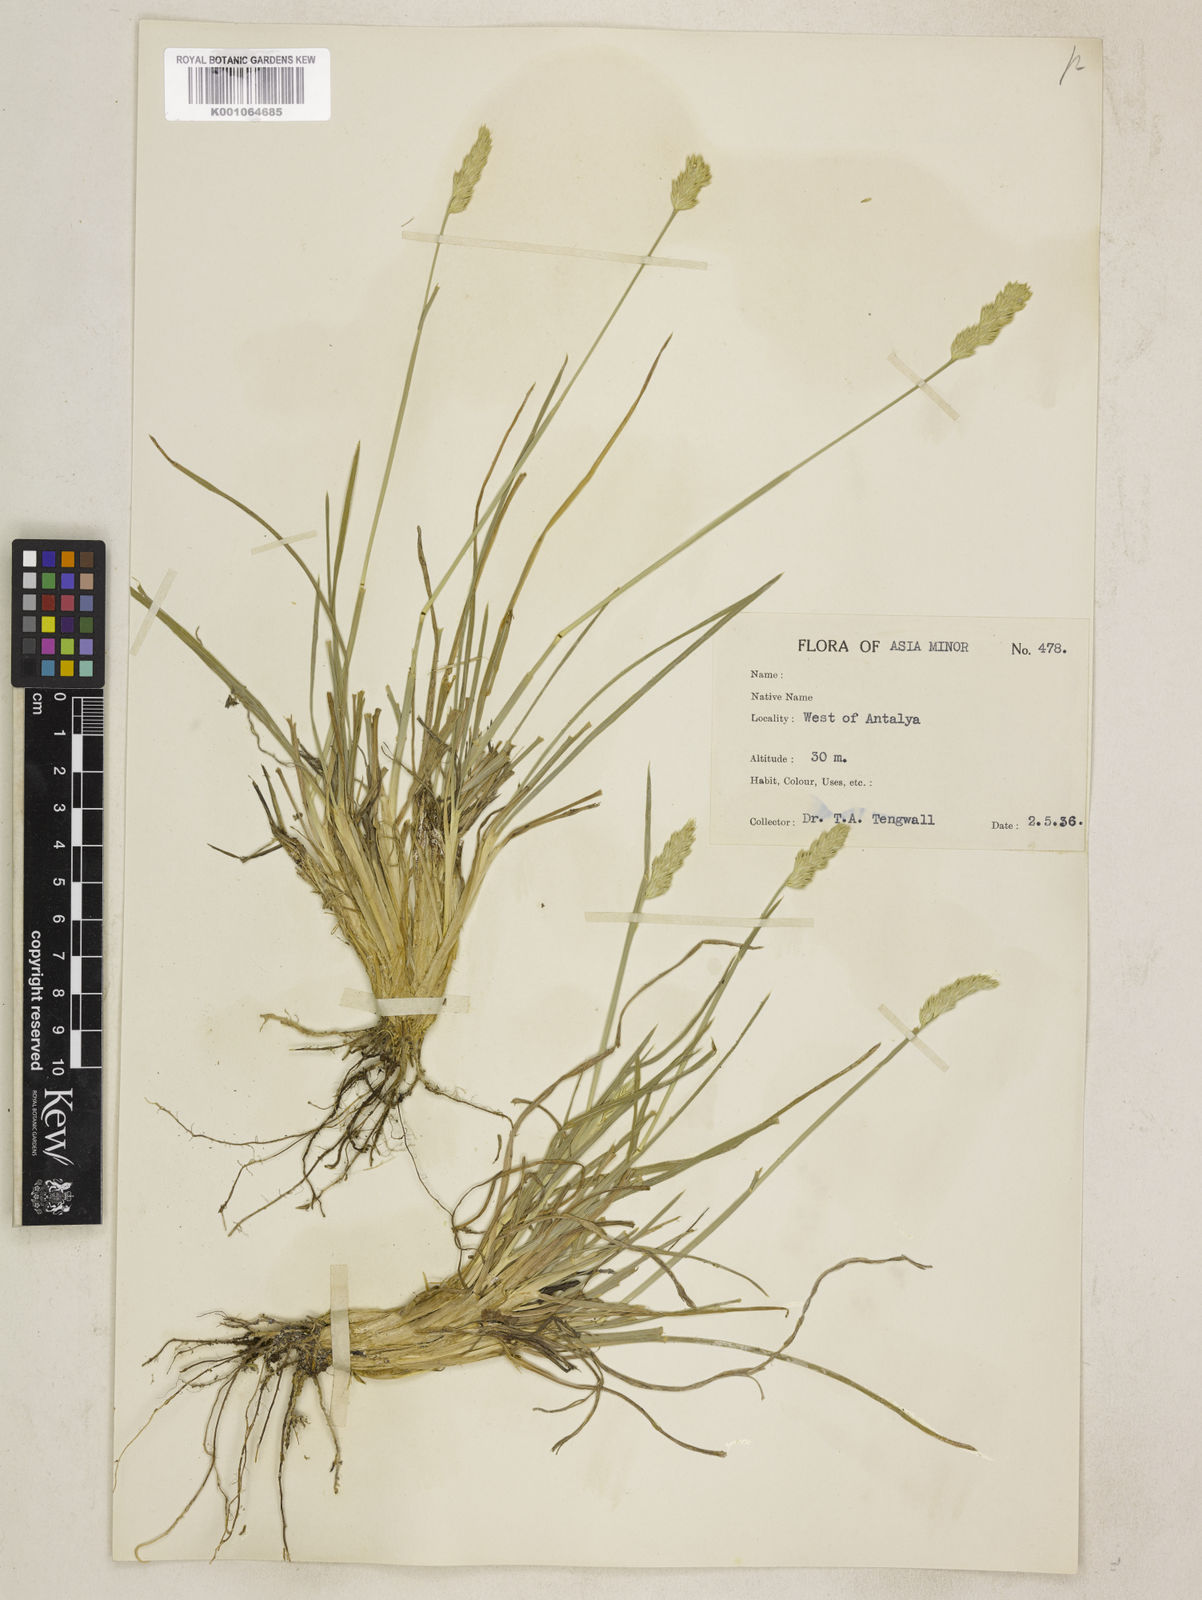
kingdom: Plantae
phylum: Tracheophyta
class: Liliopsida
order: Poales
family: Poaceae
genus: Dactylis
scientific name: Dactylis glomerata
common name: Orchardgrass
